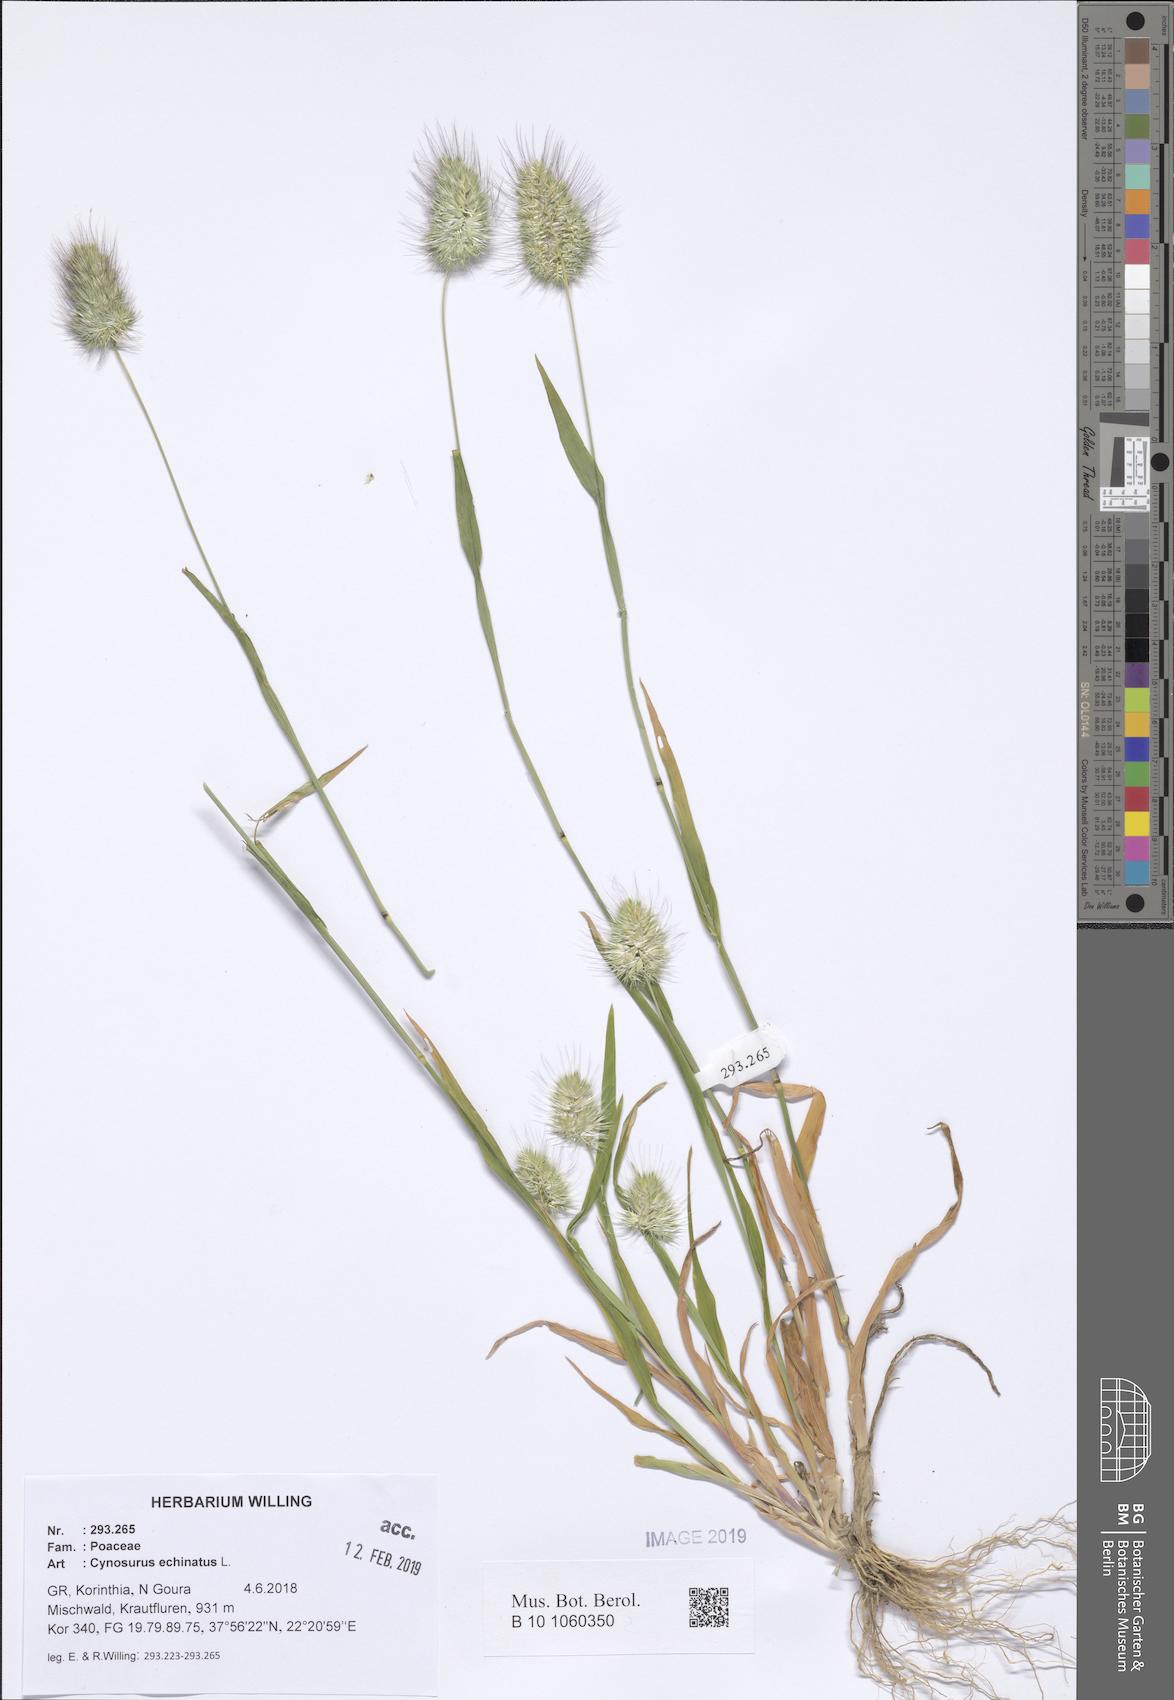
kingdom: Plantae
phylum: Tracheophyta
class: Liliopsida
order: Poales
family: Poaceae
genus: Cynosurus
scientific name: Cynosurus echinatus
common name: Rough dog's-tail
